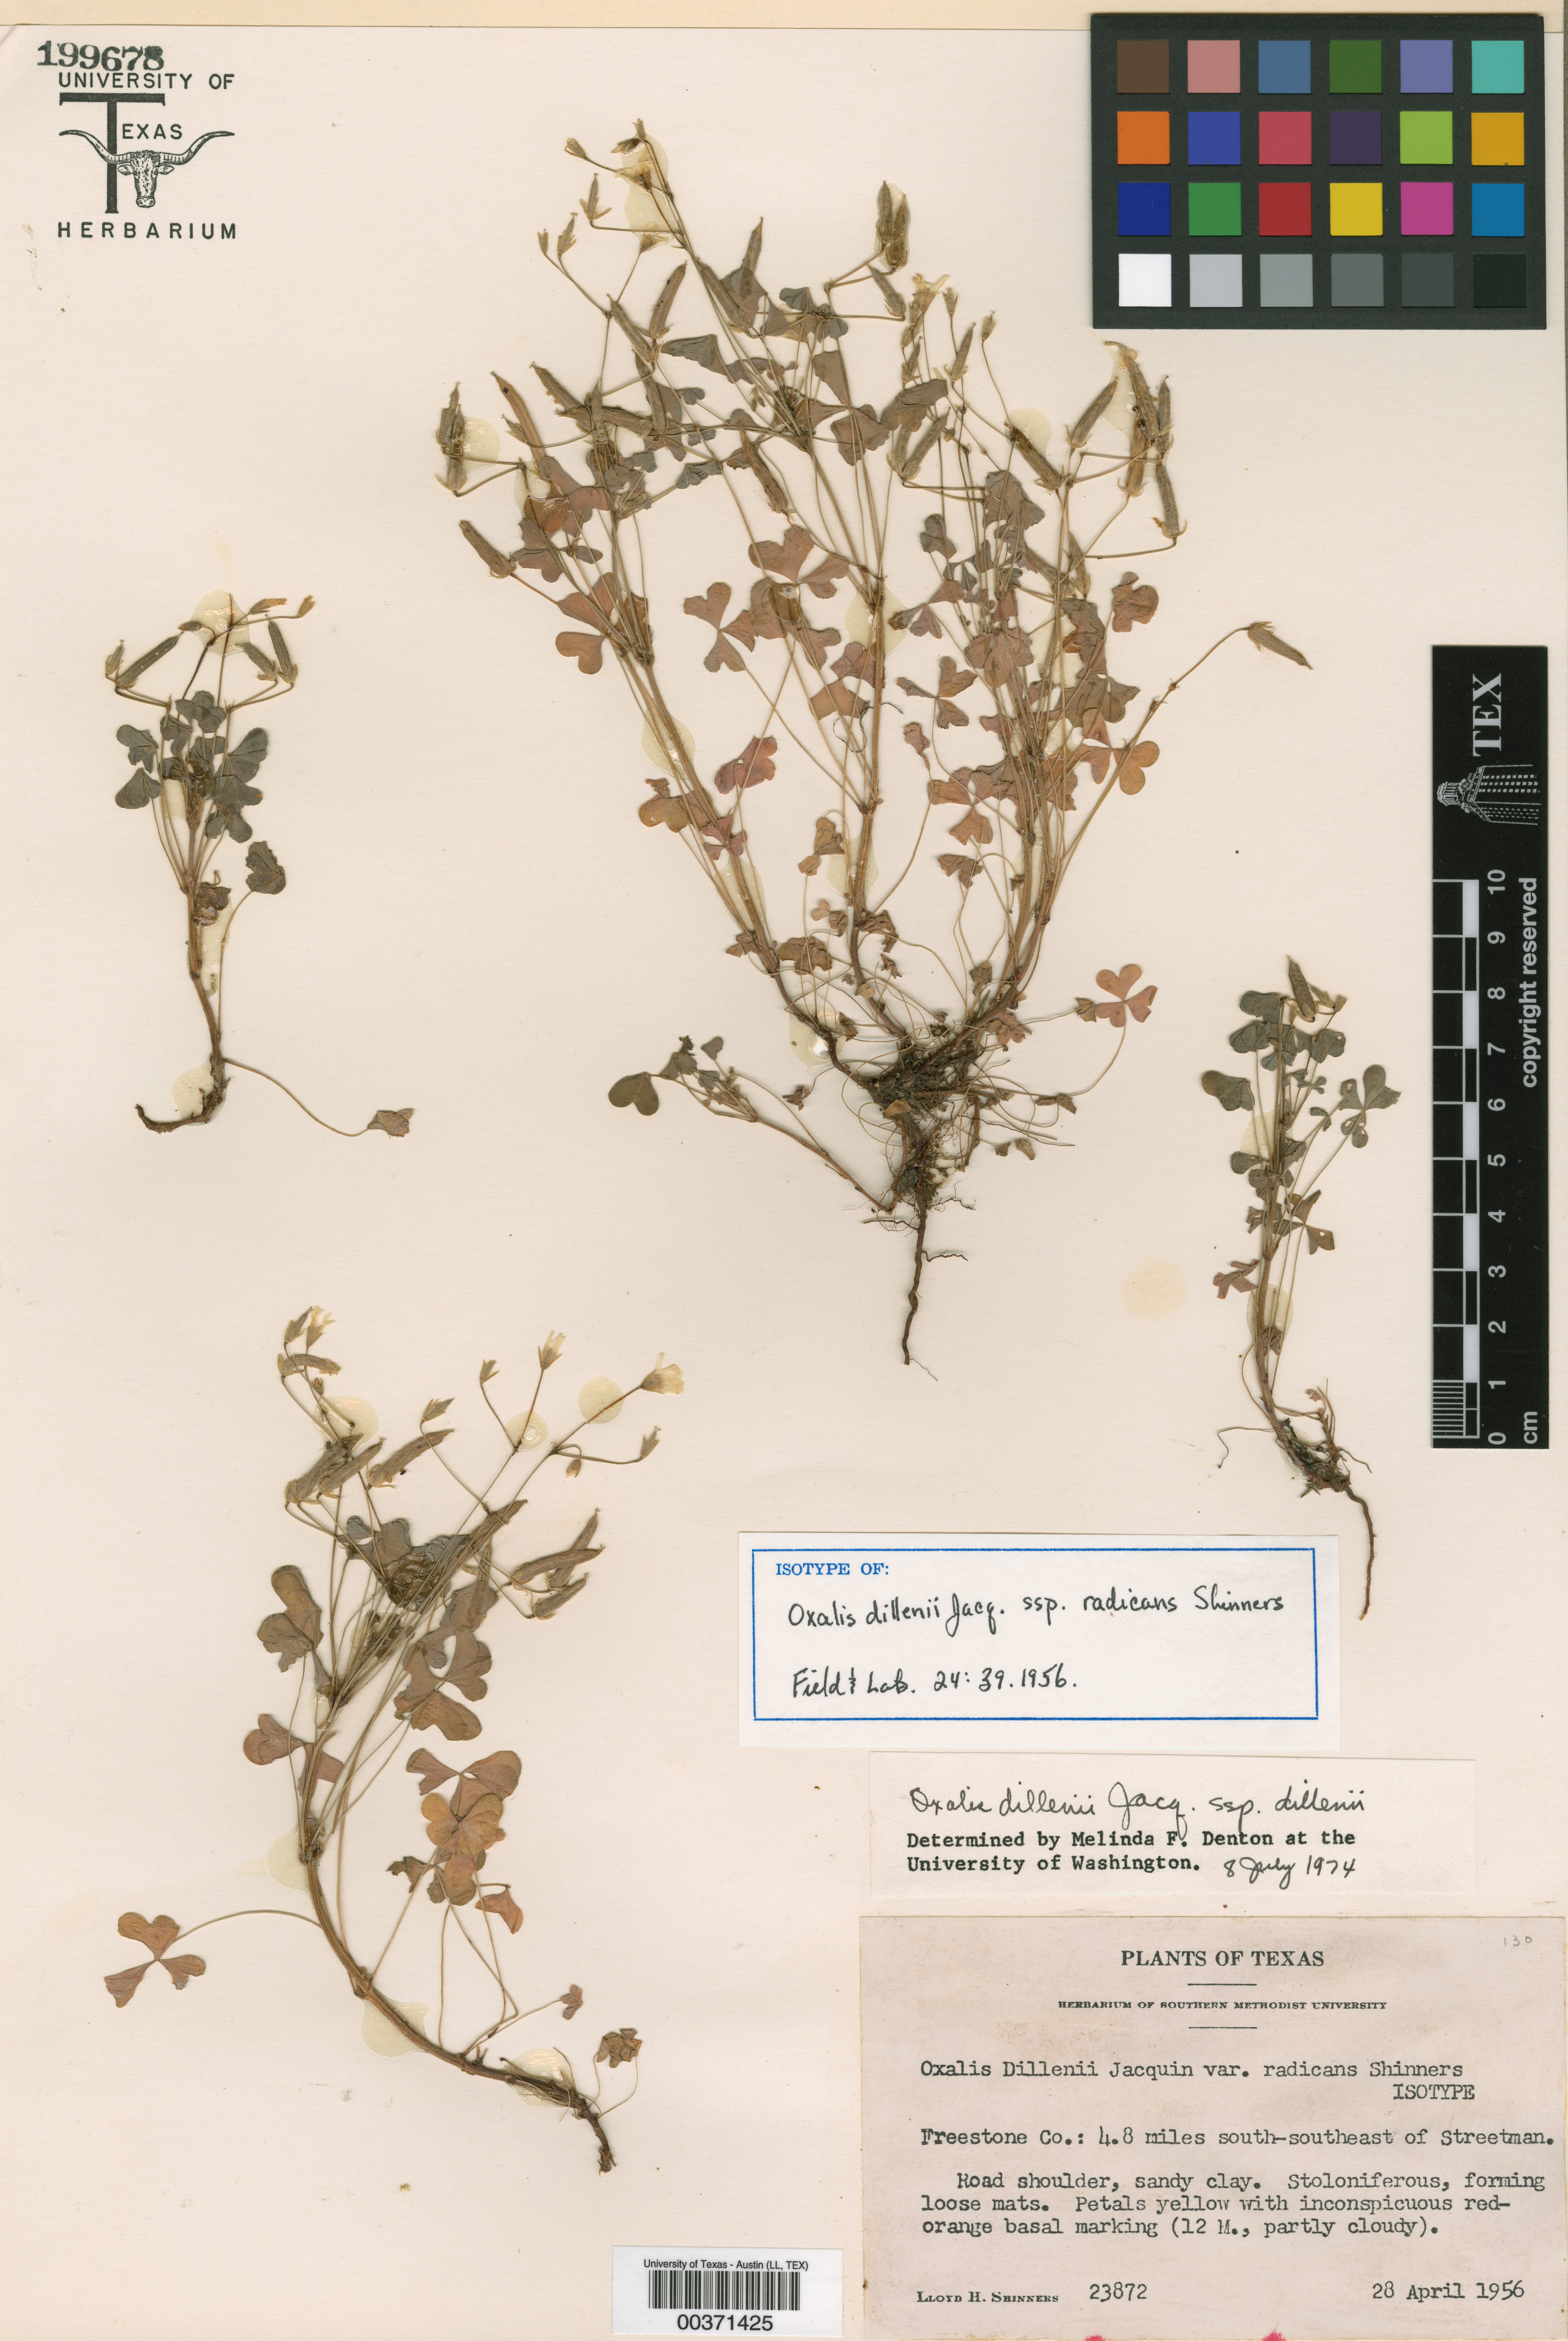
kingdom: Plantae
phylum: Tracheophyta
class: Magnoliopsida
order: Oxalidales
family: Oxalidaceae
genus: Oxalis
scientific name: Oxalis dillenii
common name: Sussex yellow-sorrel
